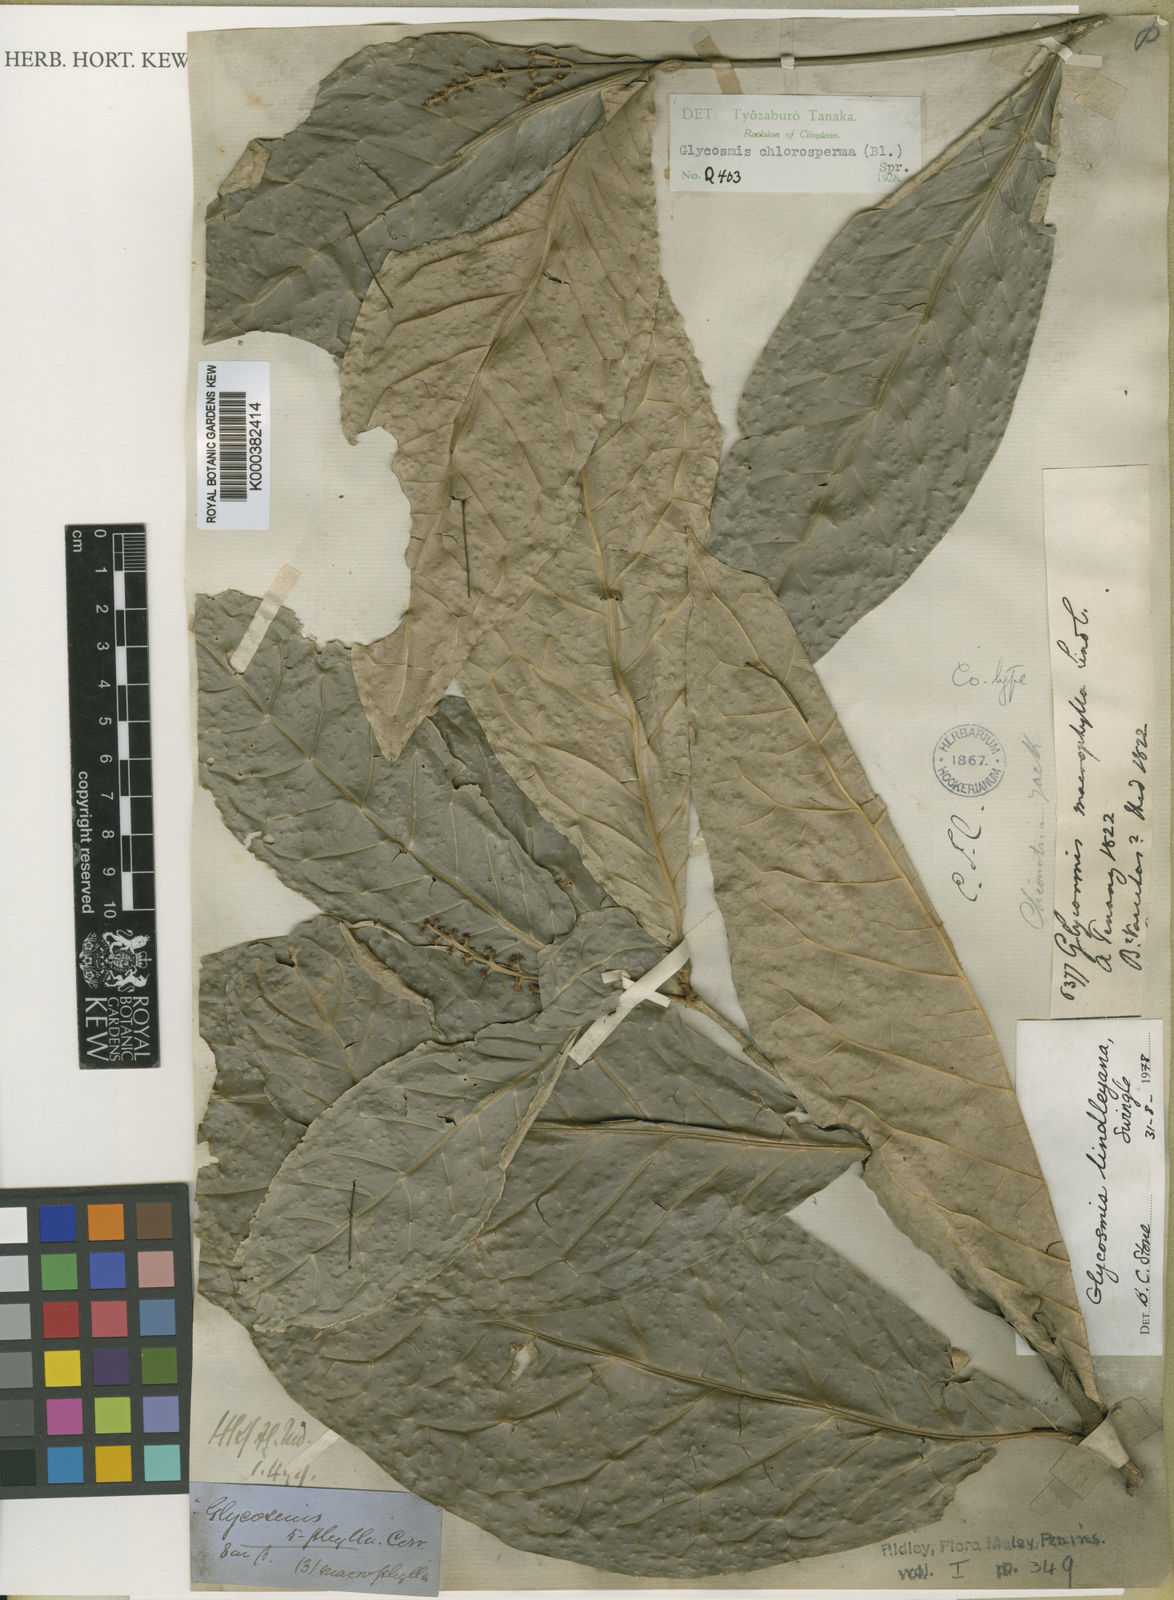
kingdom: Plantae
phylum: Tracheophyta
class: Magnoliopsida
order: Sapindales
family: Rutaceae
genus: Glycosmis
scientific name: Glycosmis
